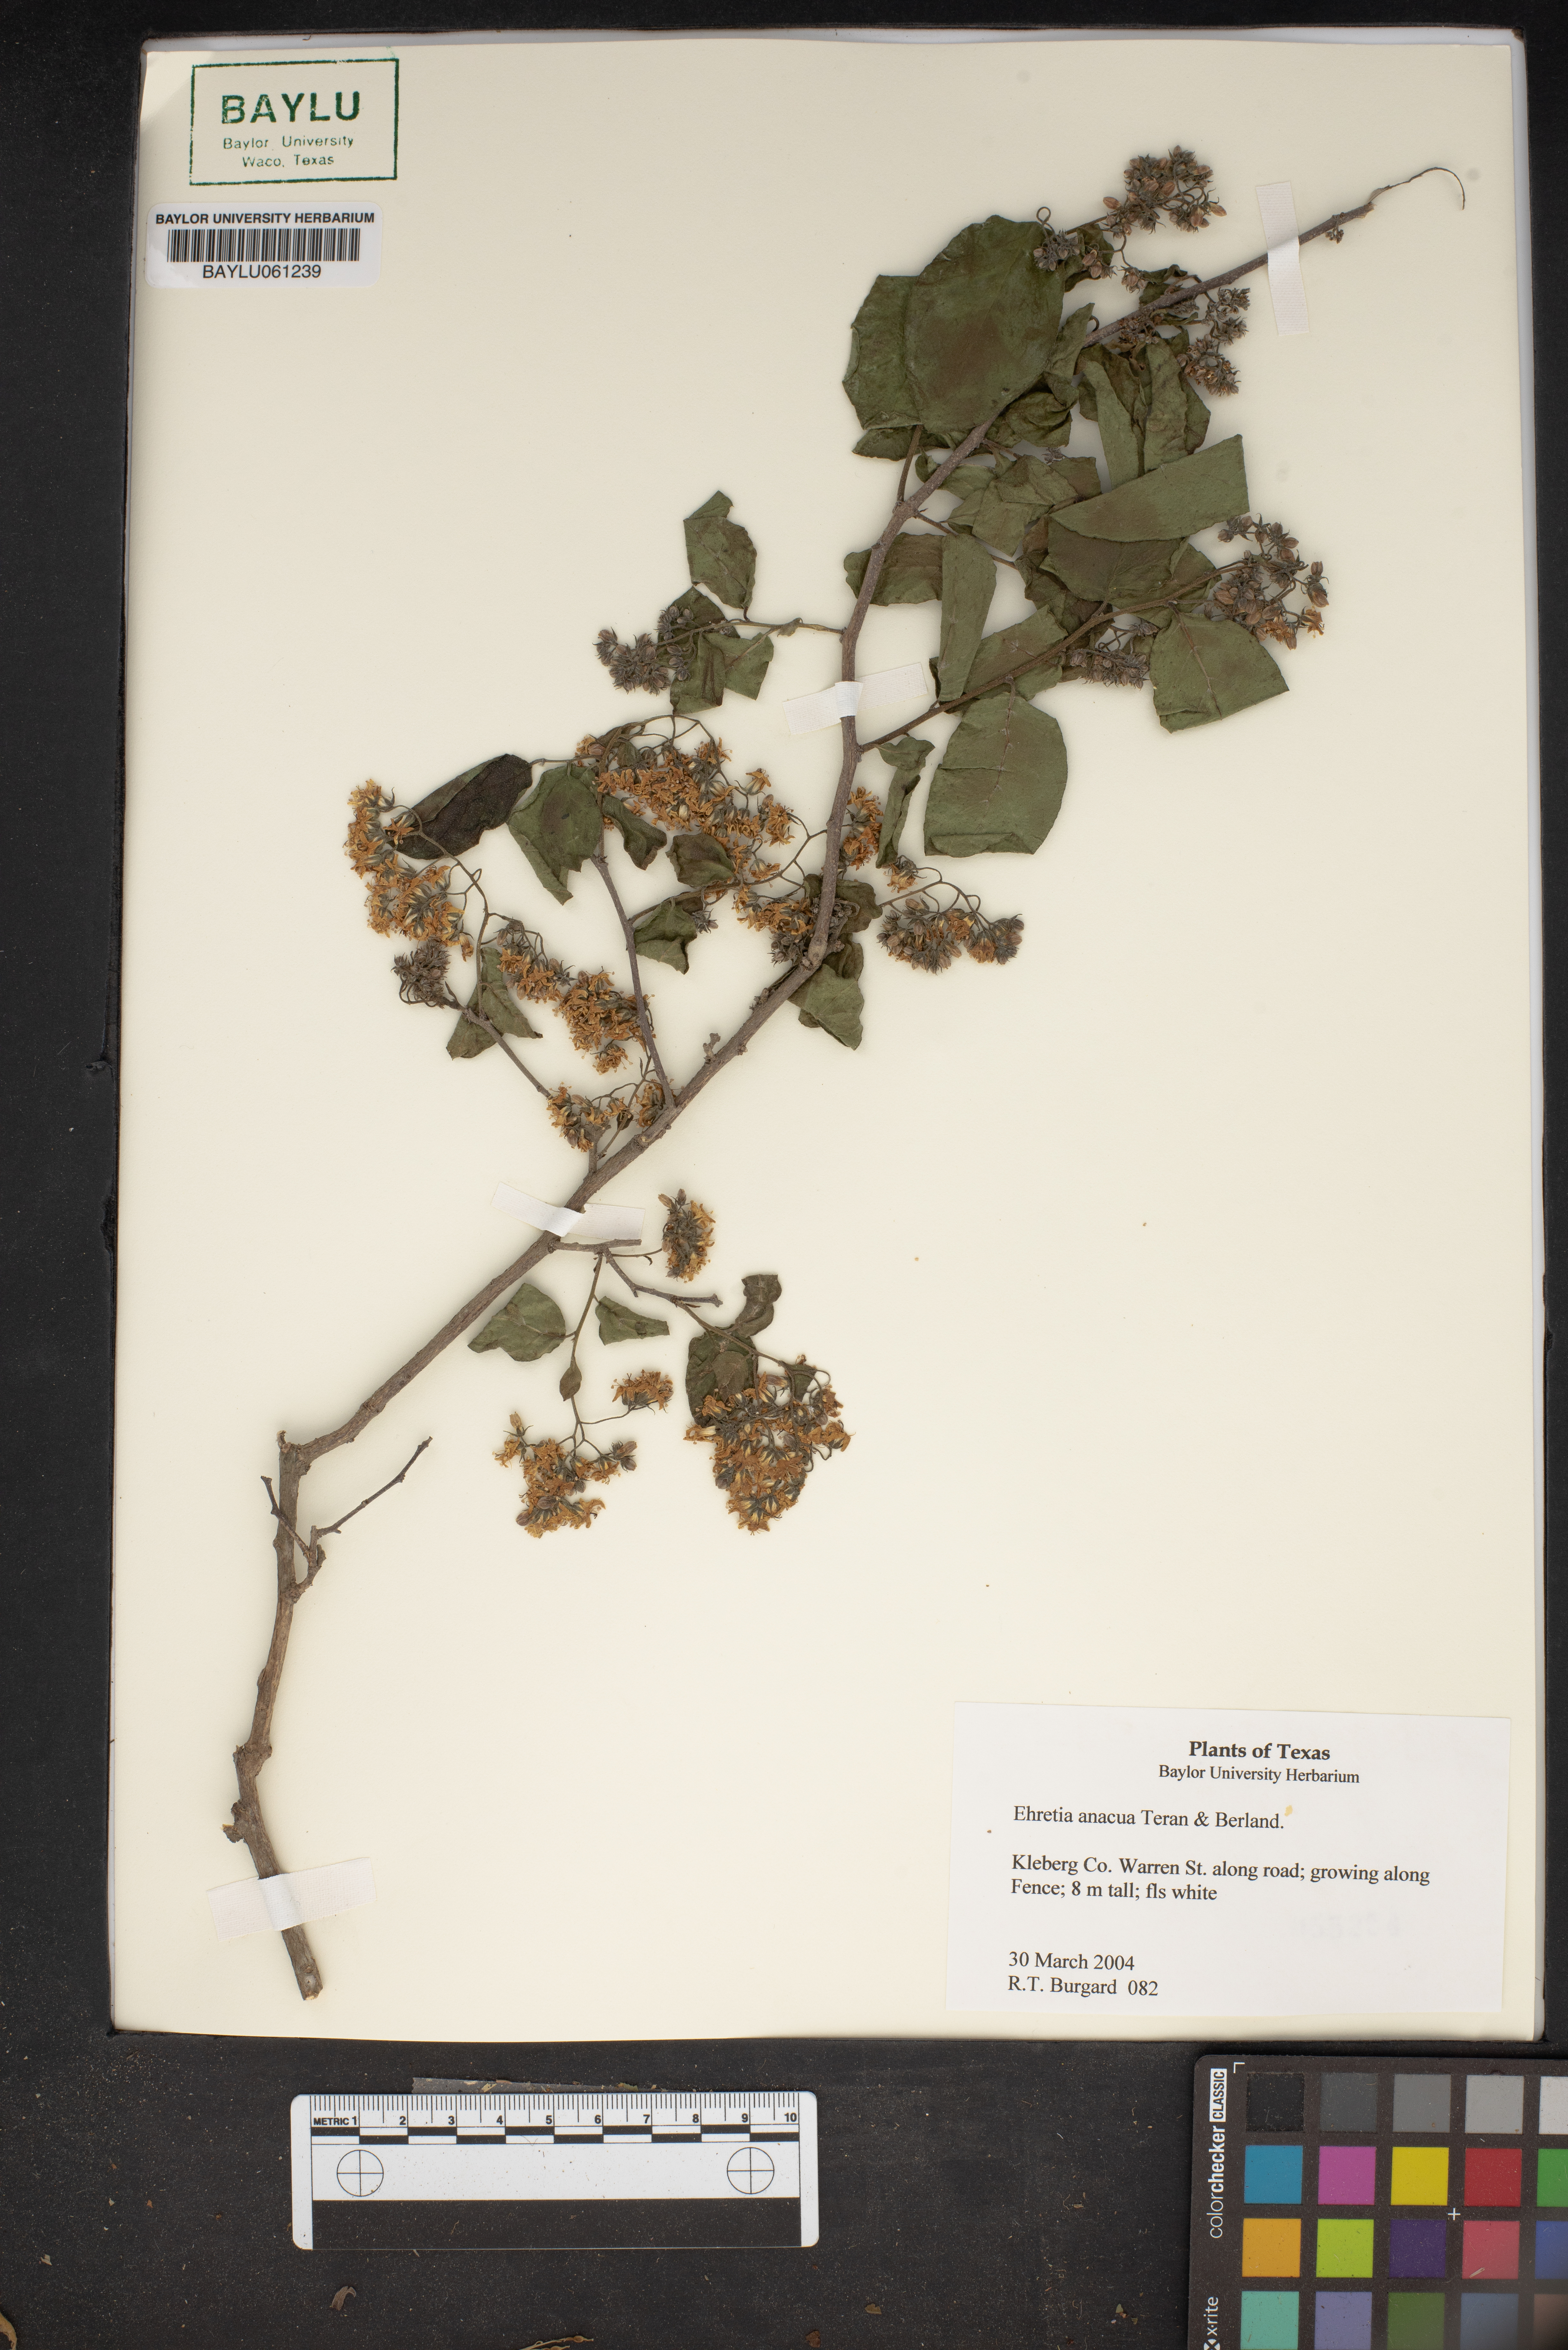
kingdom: Plantae
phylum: Tracheophyta
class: Magnoliopsida
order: Boraginales
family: Ehretiaceae
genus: Ehretia
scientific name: Ehretia anacua
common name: Sugarberry
